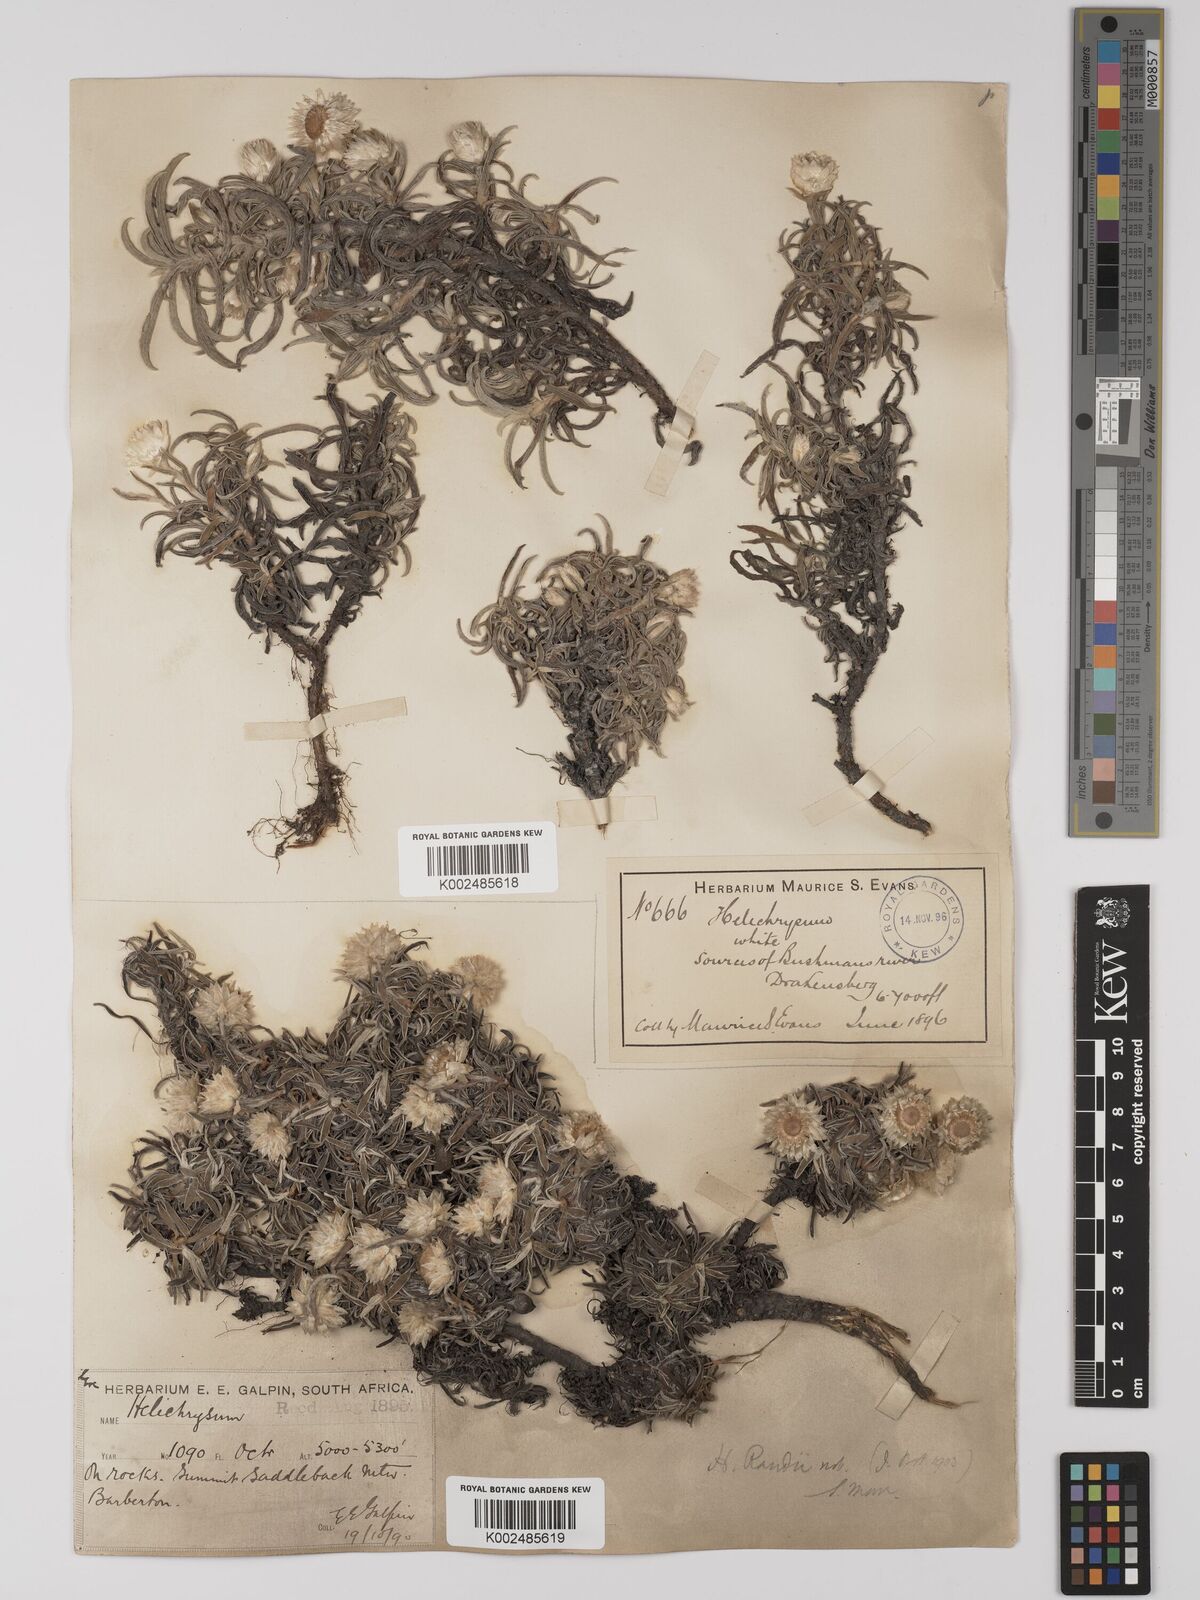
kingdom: Plantae
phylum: Tracheophyta
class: Magnoliopsida
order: Asterales
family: Asteraceae
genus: Helichrysum
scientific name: Helichrysum chionosphaerum
